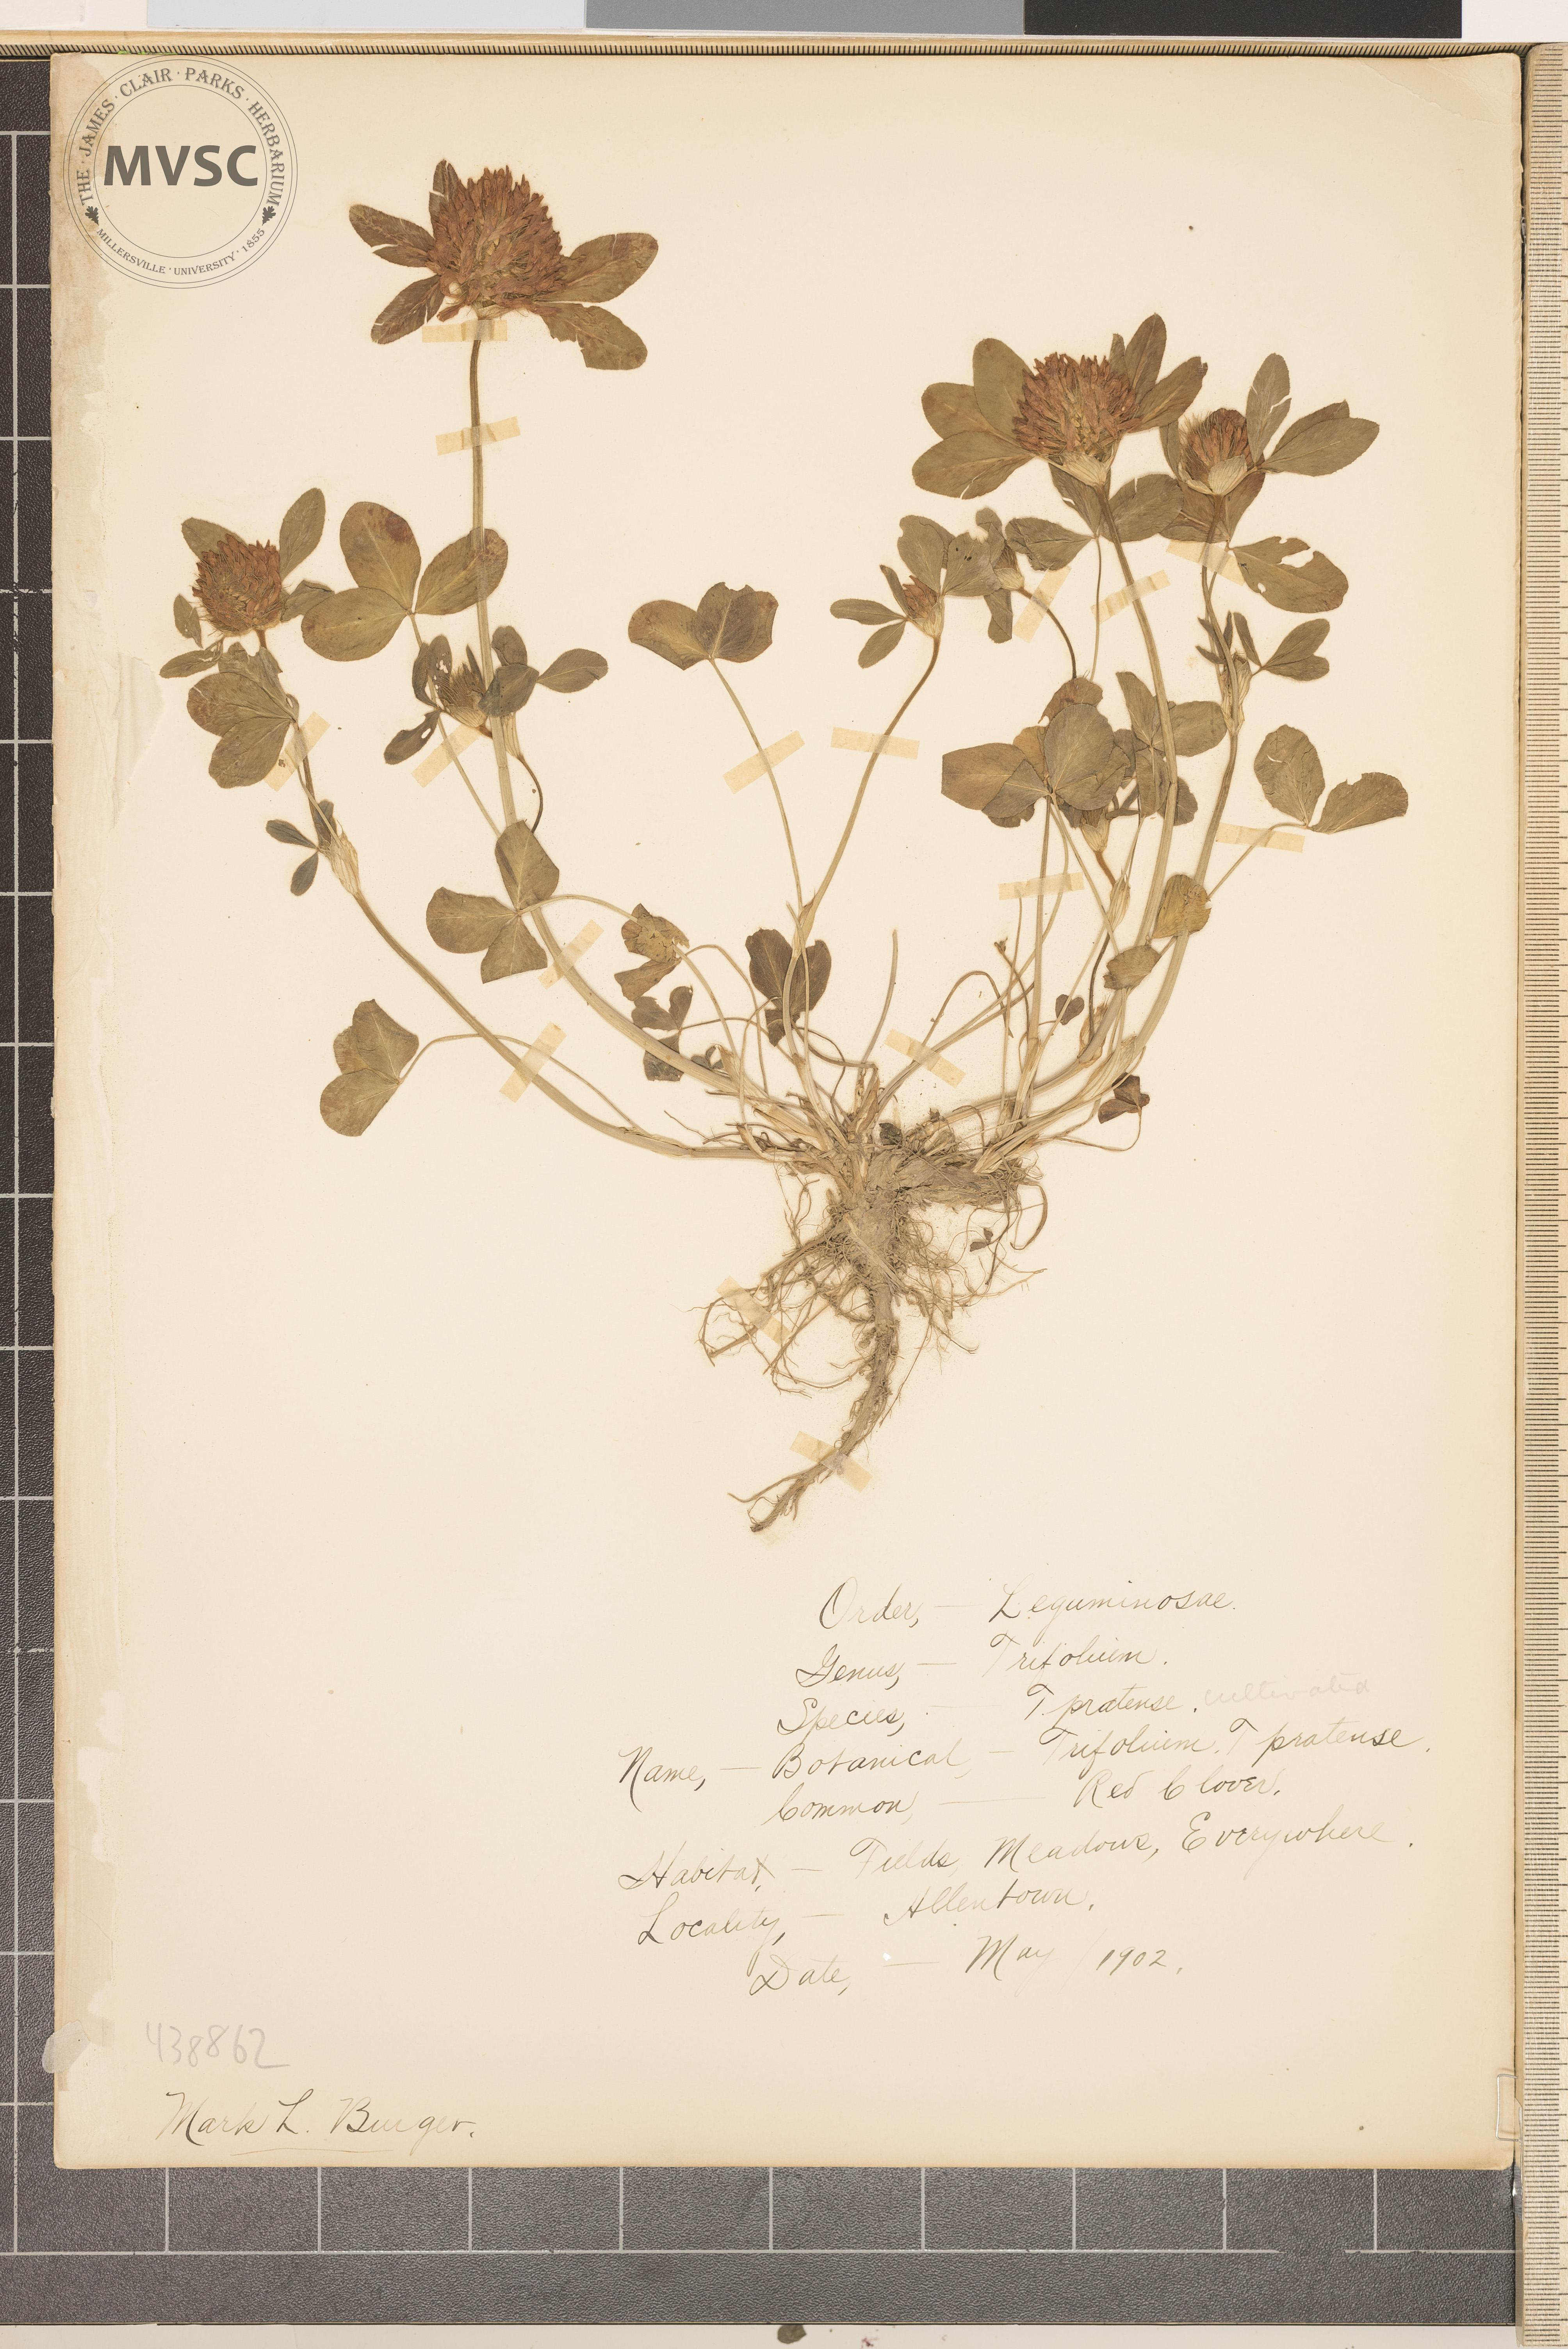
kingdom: Plantae
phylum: Tracheophyta
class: Magnoliopsida
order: Fabales
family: Fabaceae
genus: Trifolium
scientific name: Trifolium pratense
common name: Red clover
